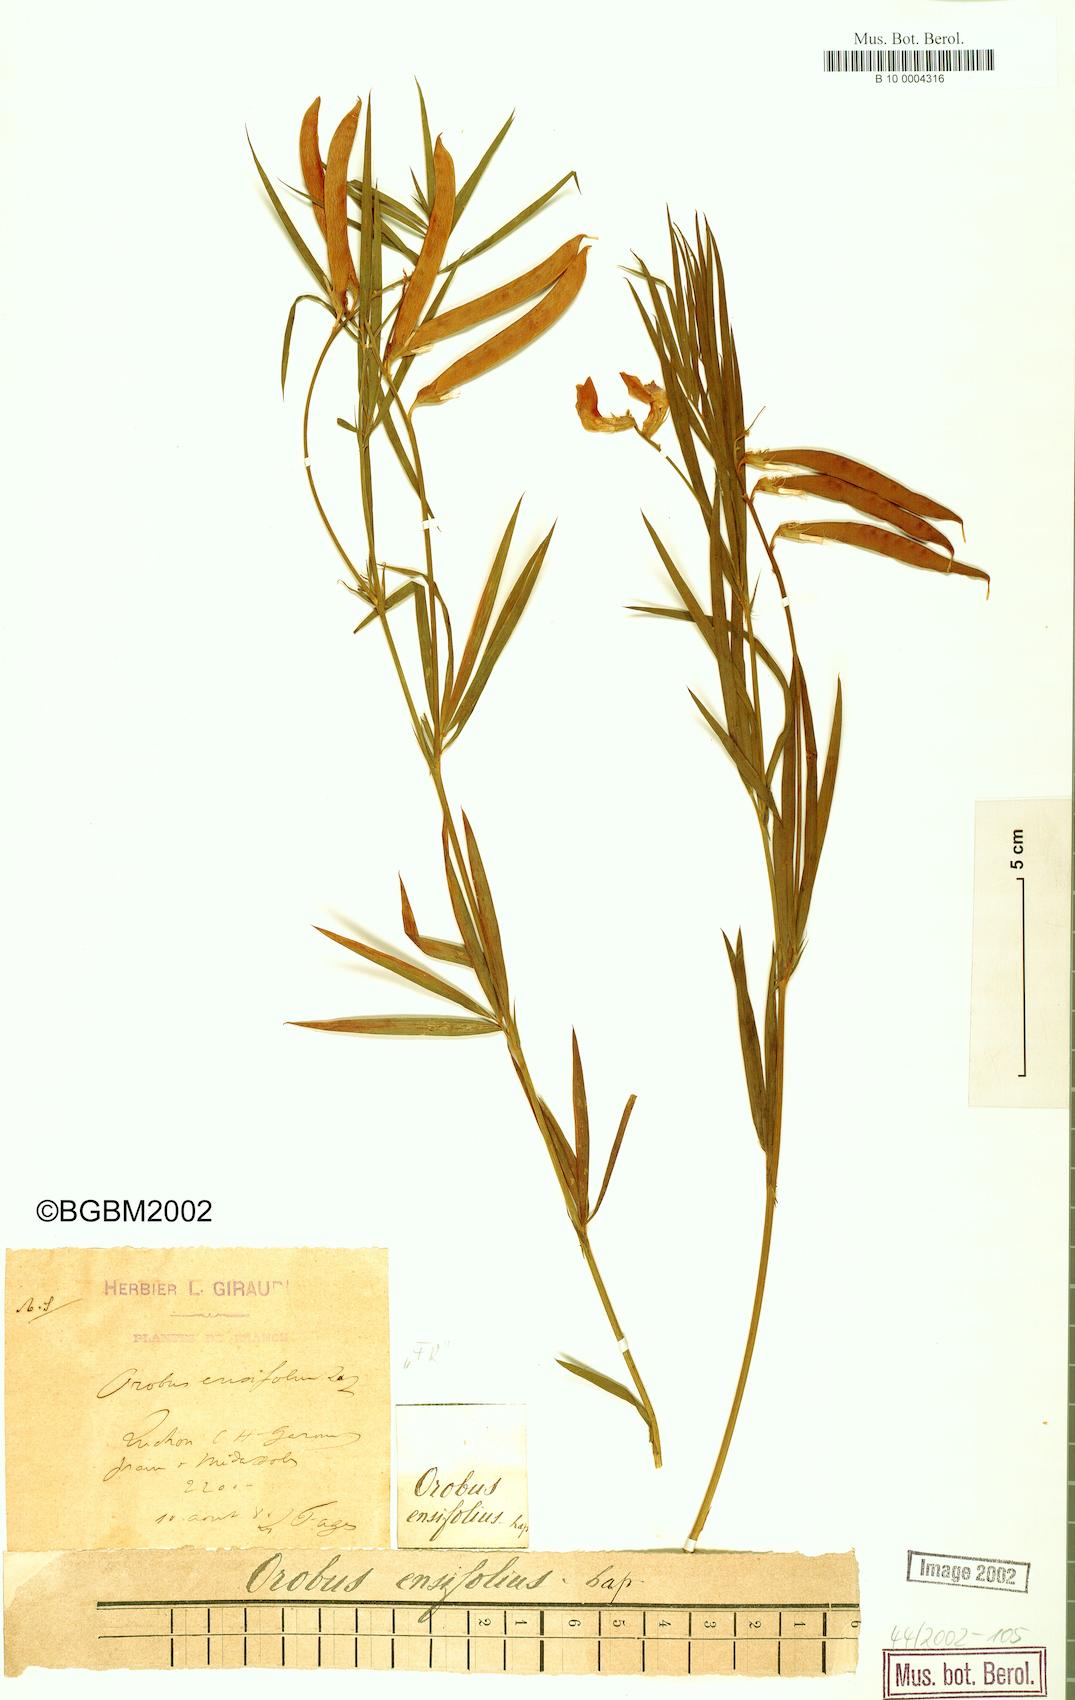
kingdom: Plantae
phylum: Tracheophyta
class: Magnoliopsida
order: Fabales
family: Fabaceae
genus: Lathyrus
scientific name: Lathyrus bauhini
